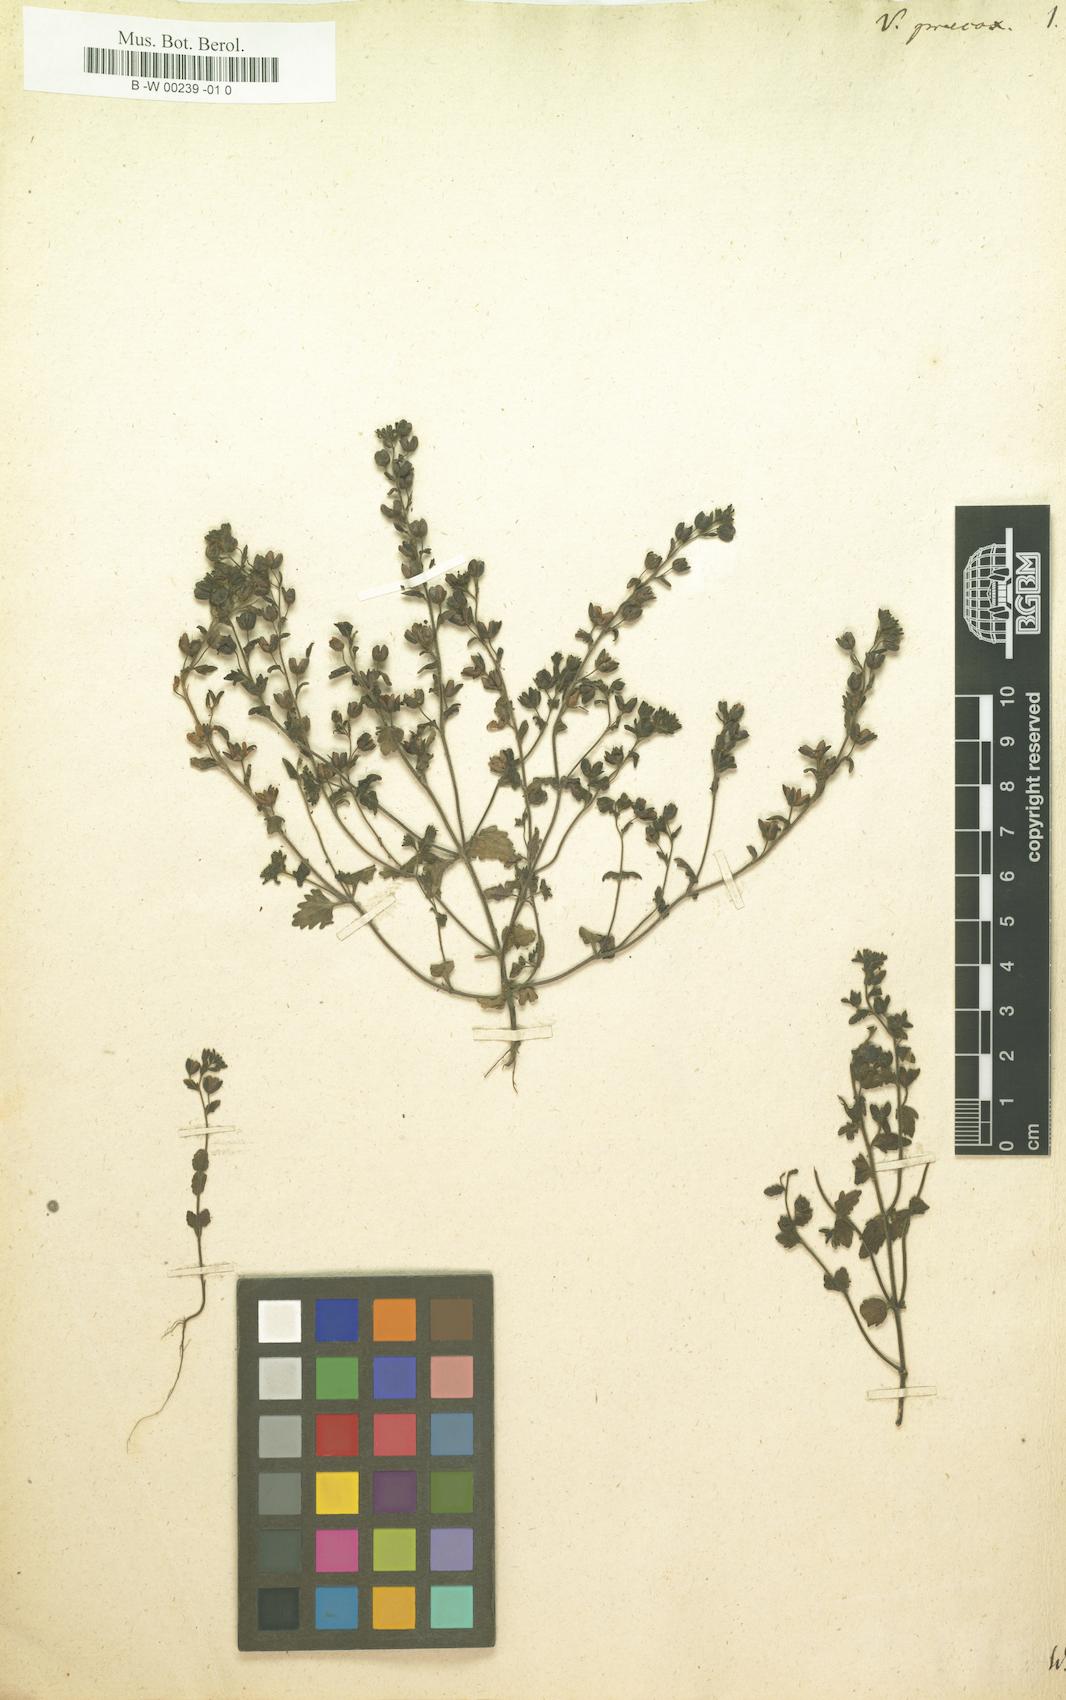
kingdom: Plantae
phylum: Tracheophyta
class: Magnoliopsida
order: Lamiales
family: Plantaginaceae
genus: Veronica
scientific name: Veronica praecox
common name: Breckland speedwell
